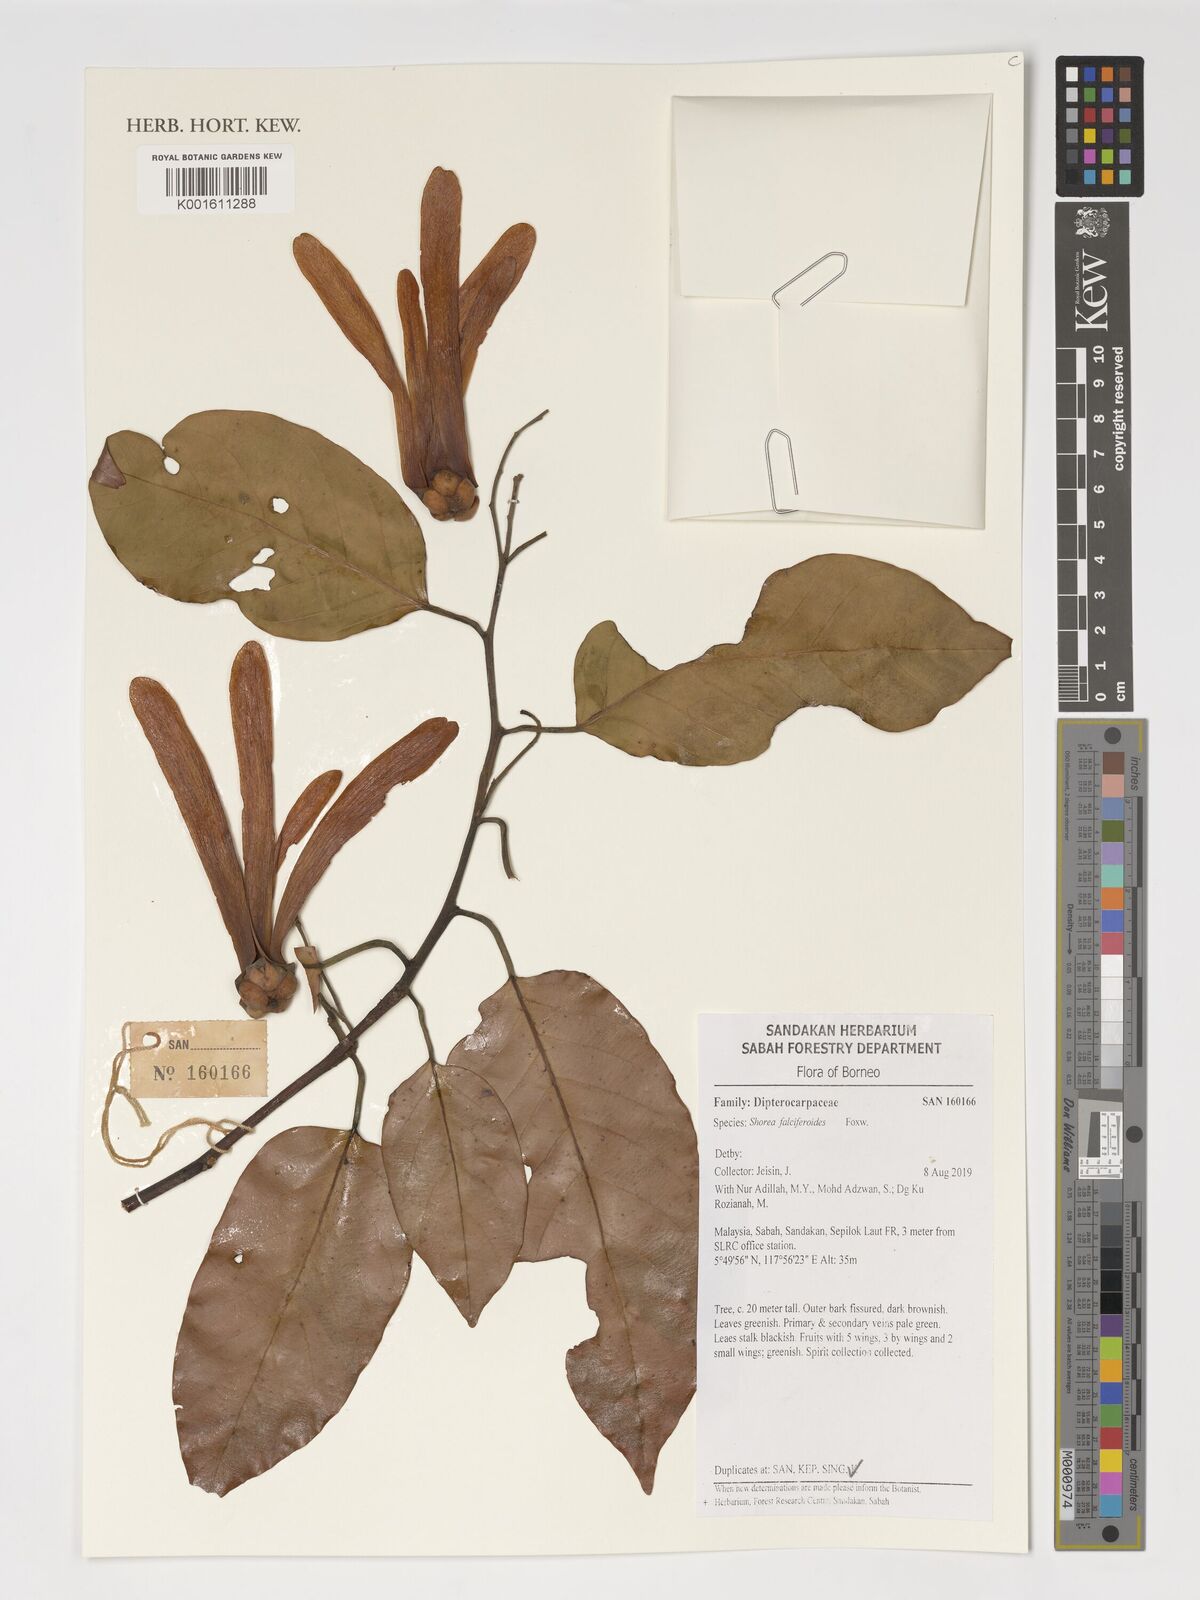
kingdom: Plantae
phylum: Tracheophyta
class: Magnoliopsida
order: Malvales
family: Dipterocarpaceae
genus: Shorea
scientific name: Shorea falciferoides
